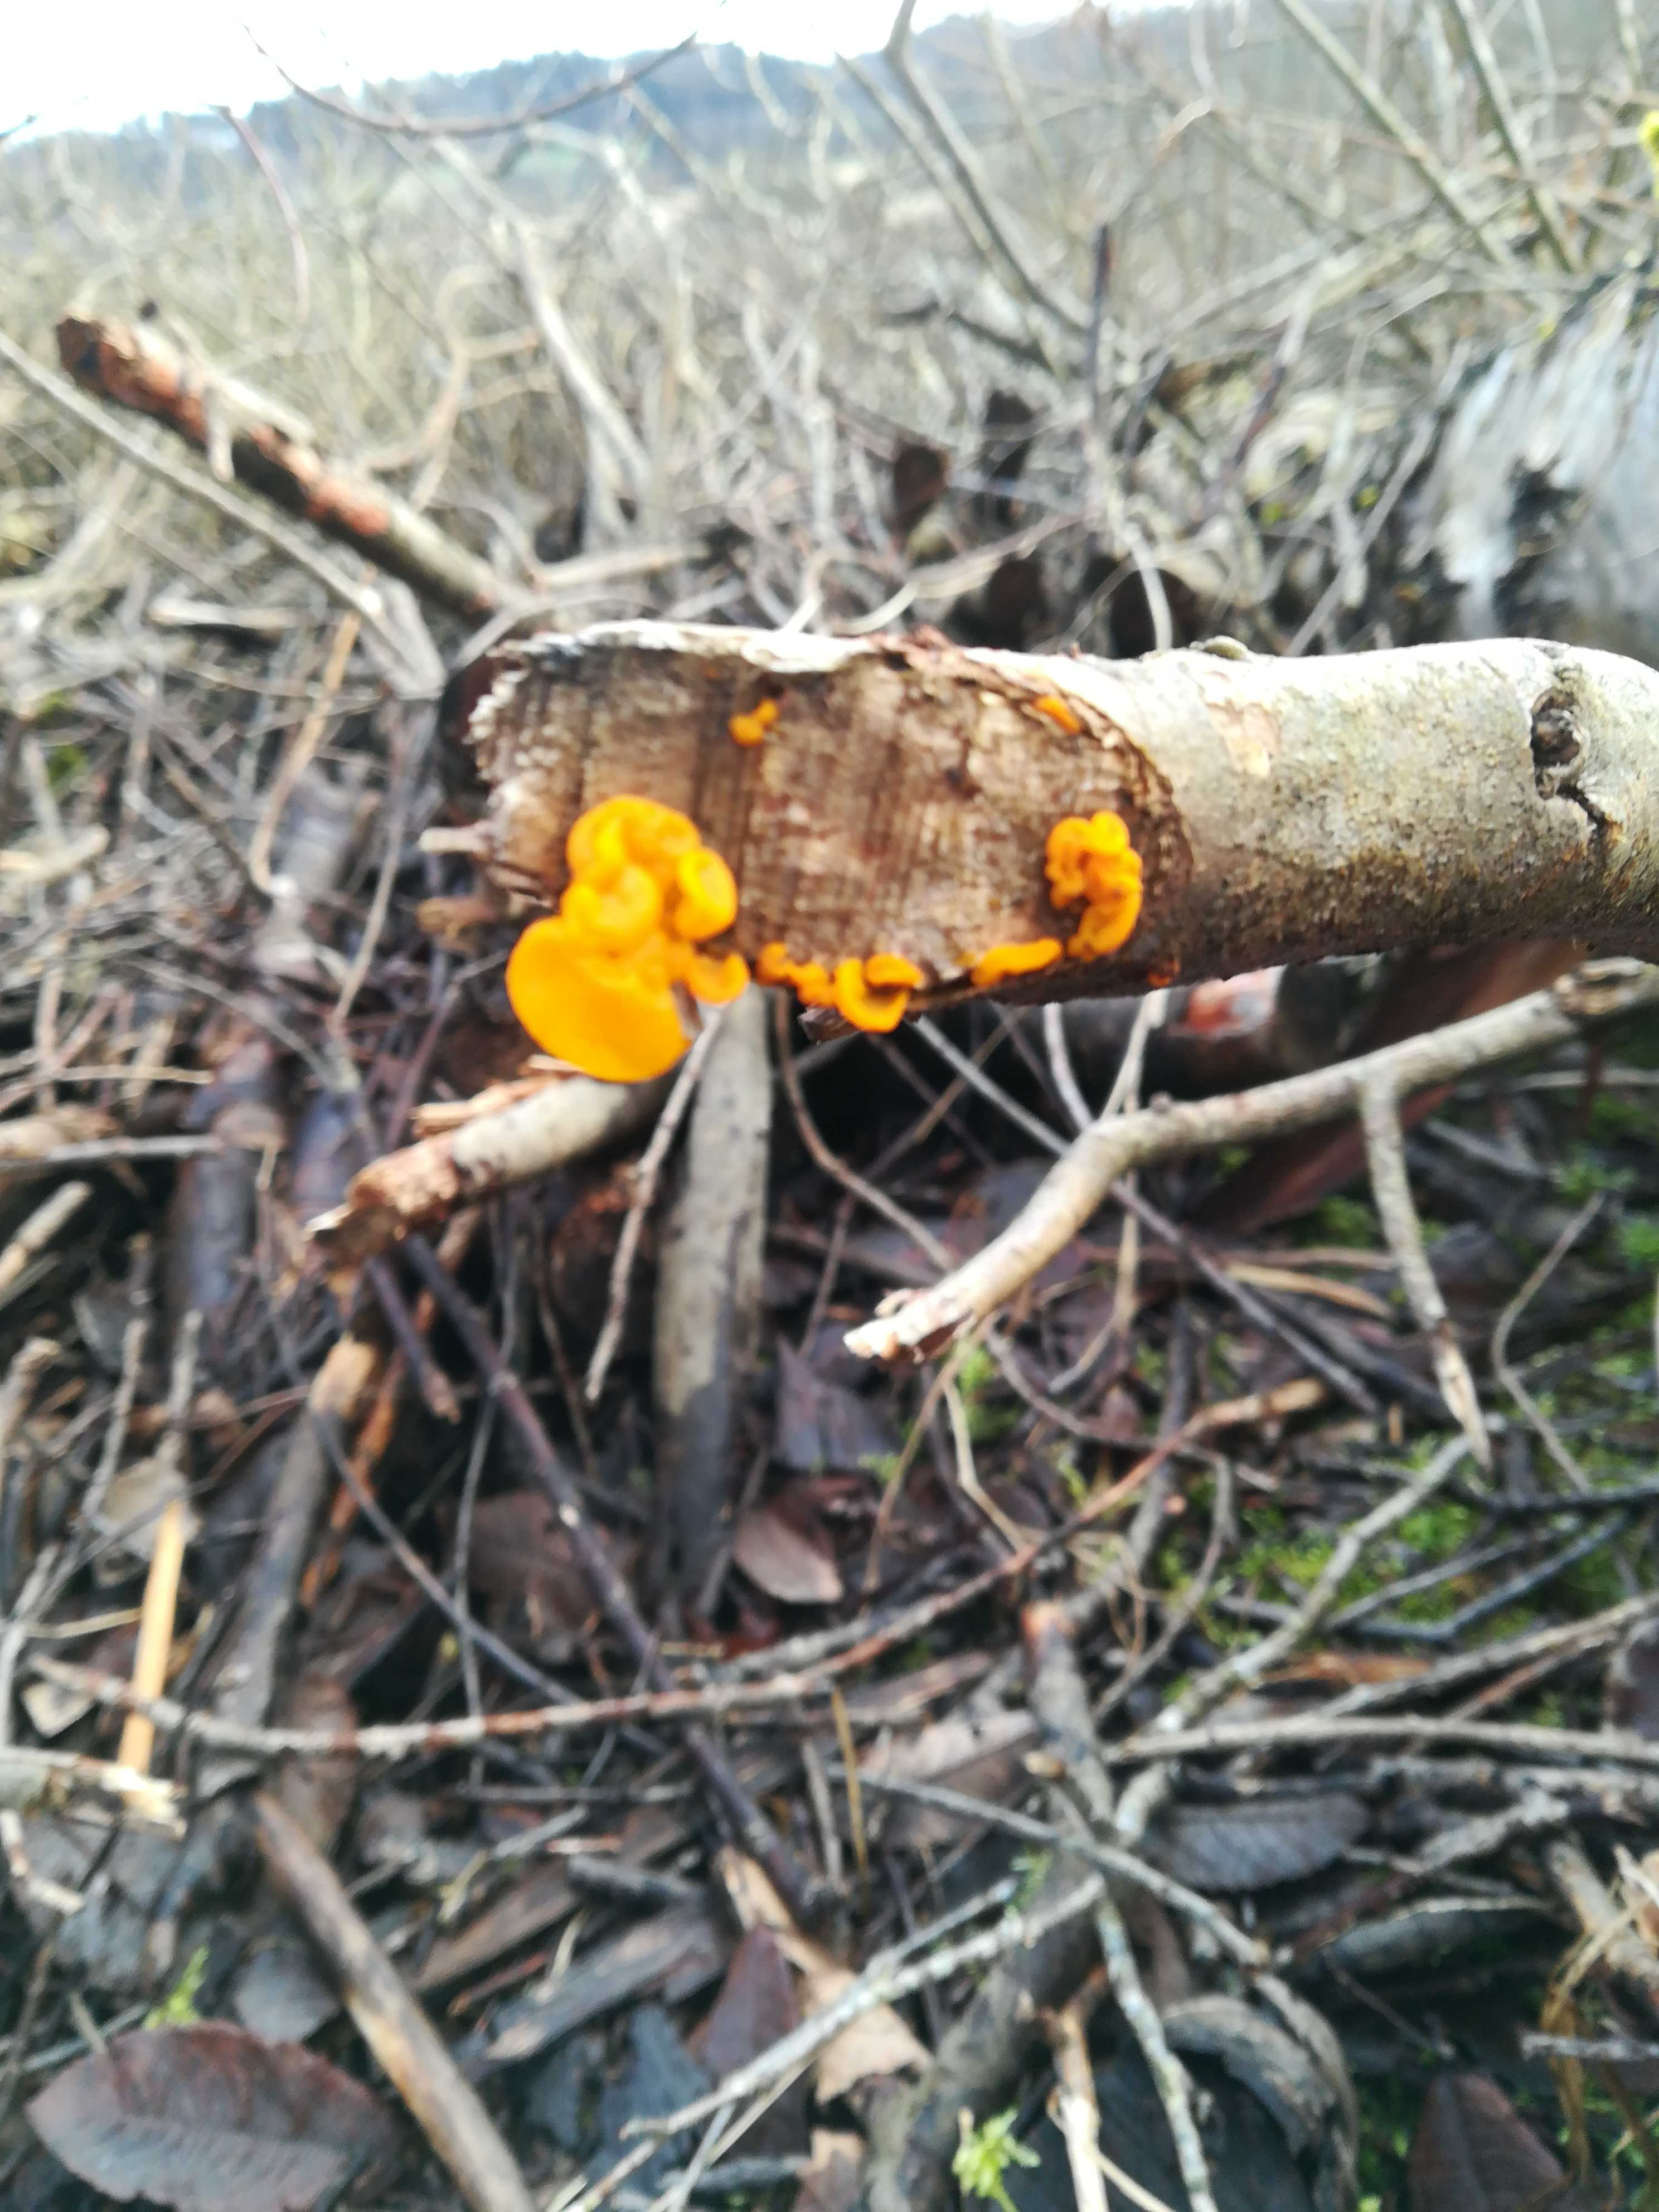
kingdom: Fungi
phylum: Basidiomycota
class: Tremellomycetes
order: Tremellales
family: Tremellaceae
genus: Tremella
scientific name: Tremella mesenterica
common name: gul bævresvamp
